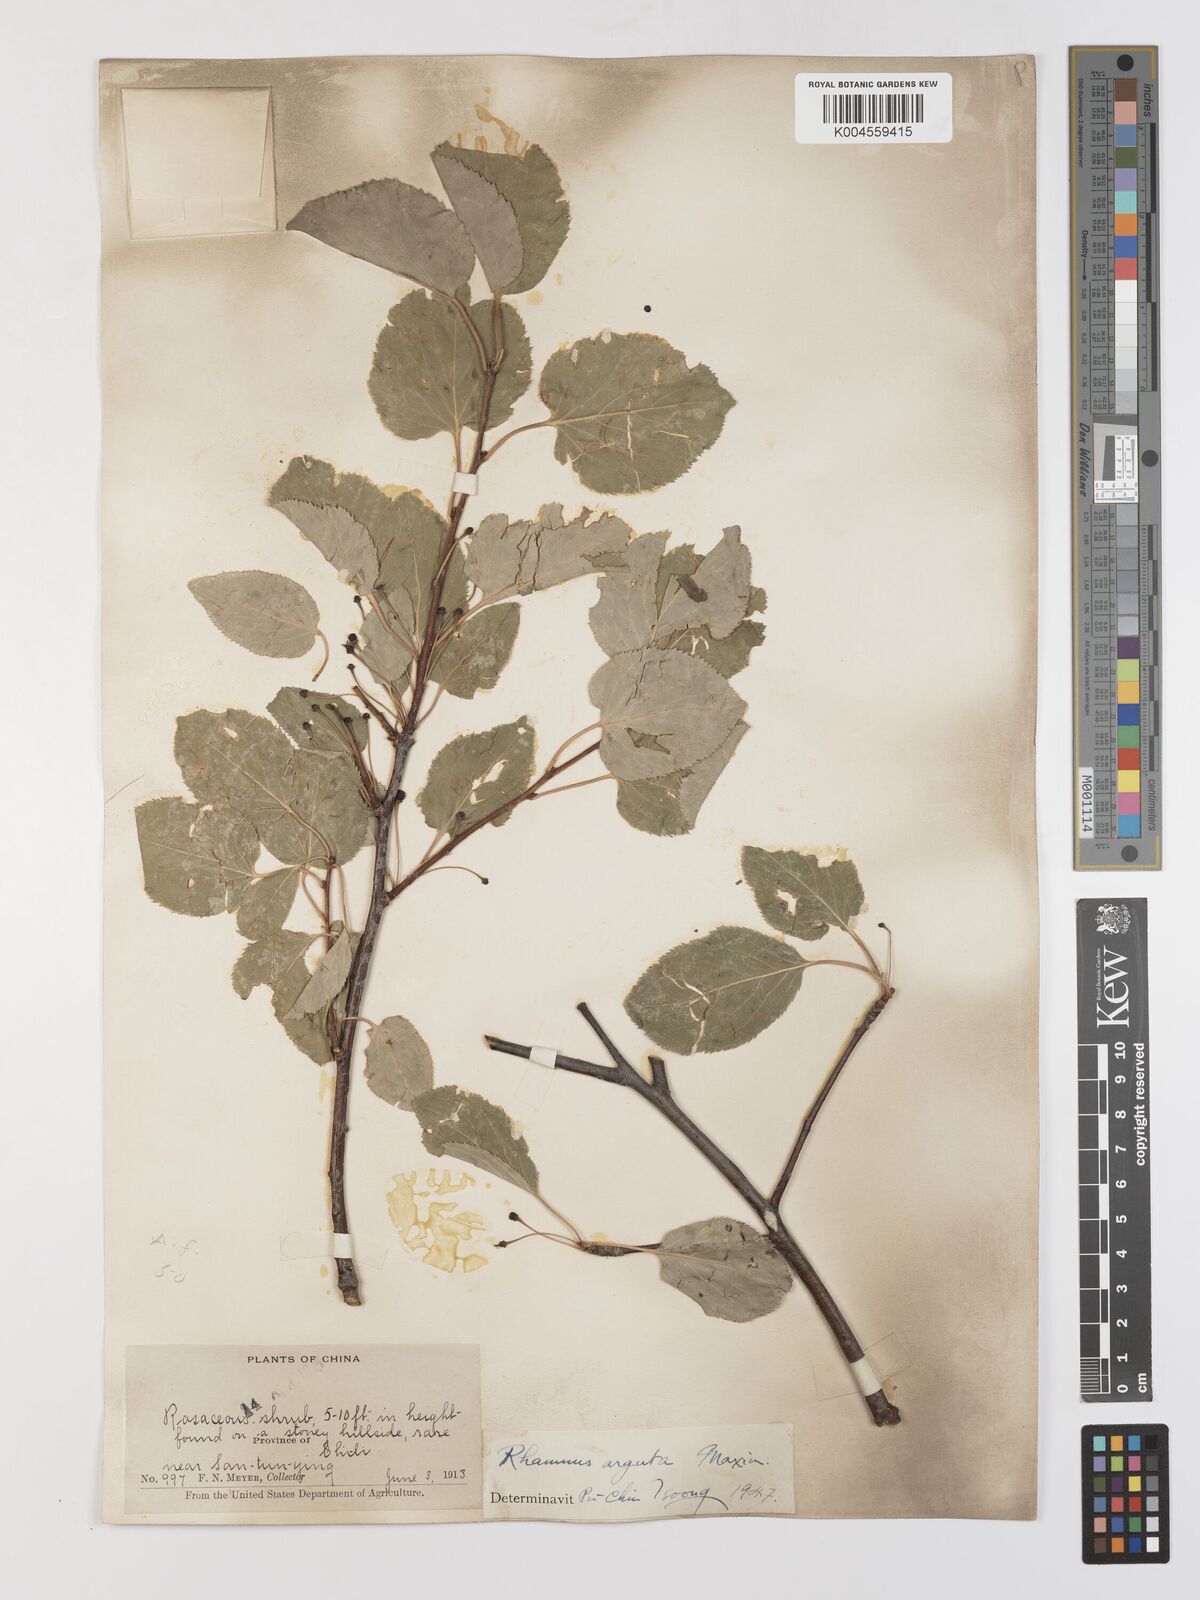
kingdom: Plantae
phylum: Tracheophyta
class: Magnoliopsida
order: Rosales
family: Rhamnaceae
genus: Rhamnus
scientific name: Rhamnus arguta
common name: Sharp-tooth buckthorn
